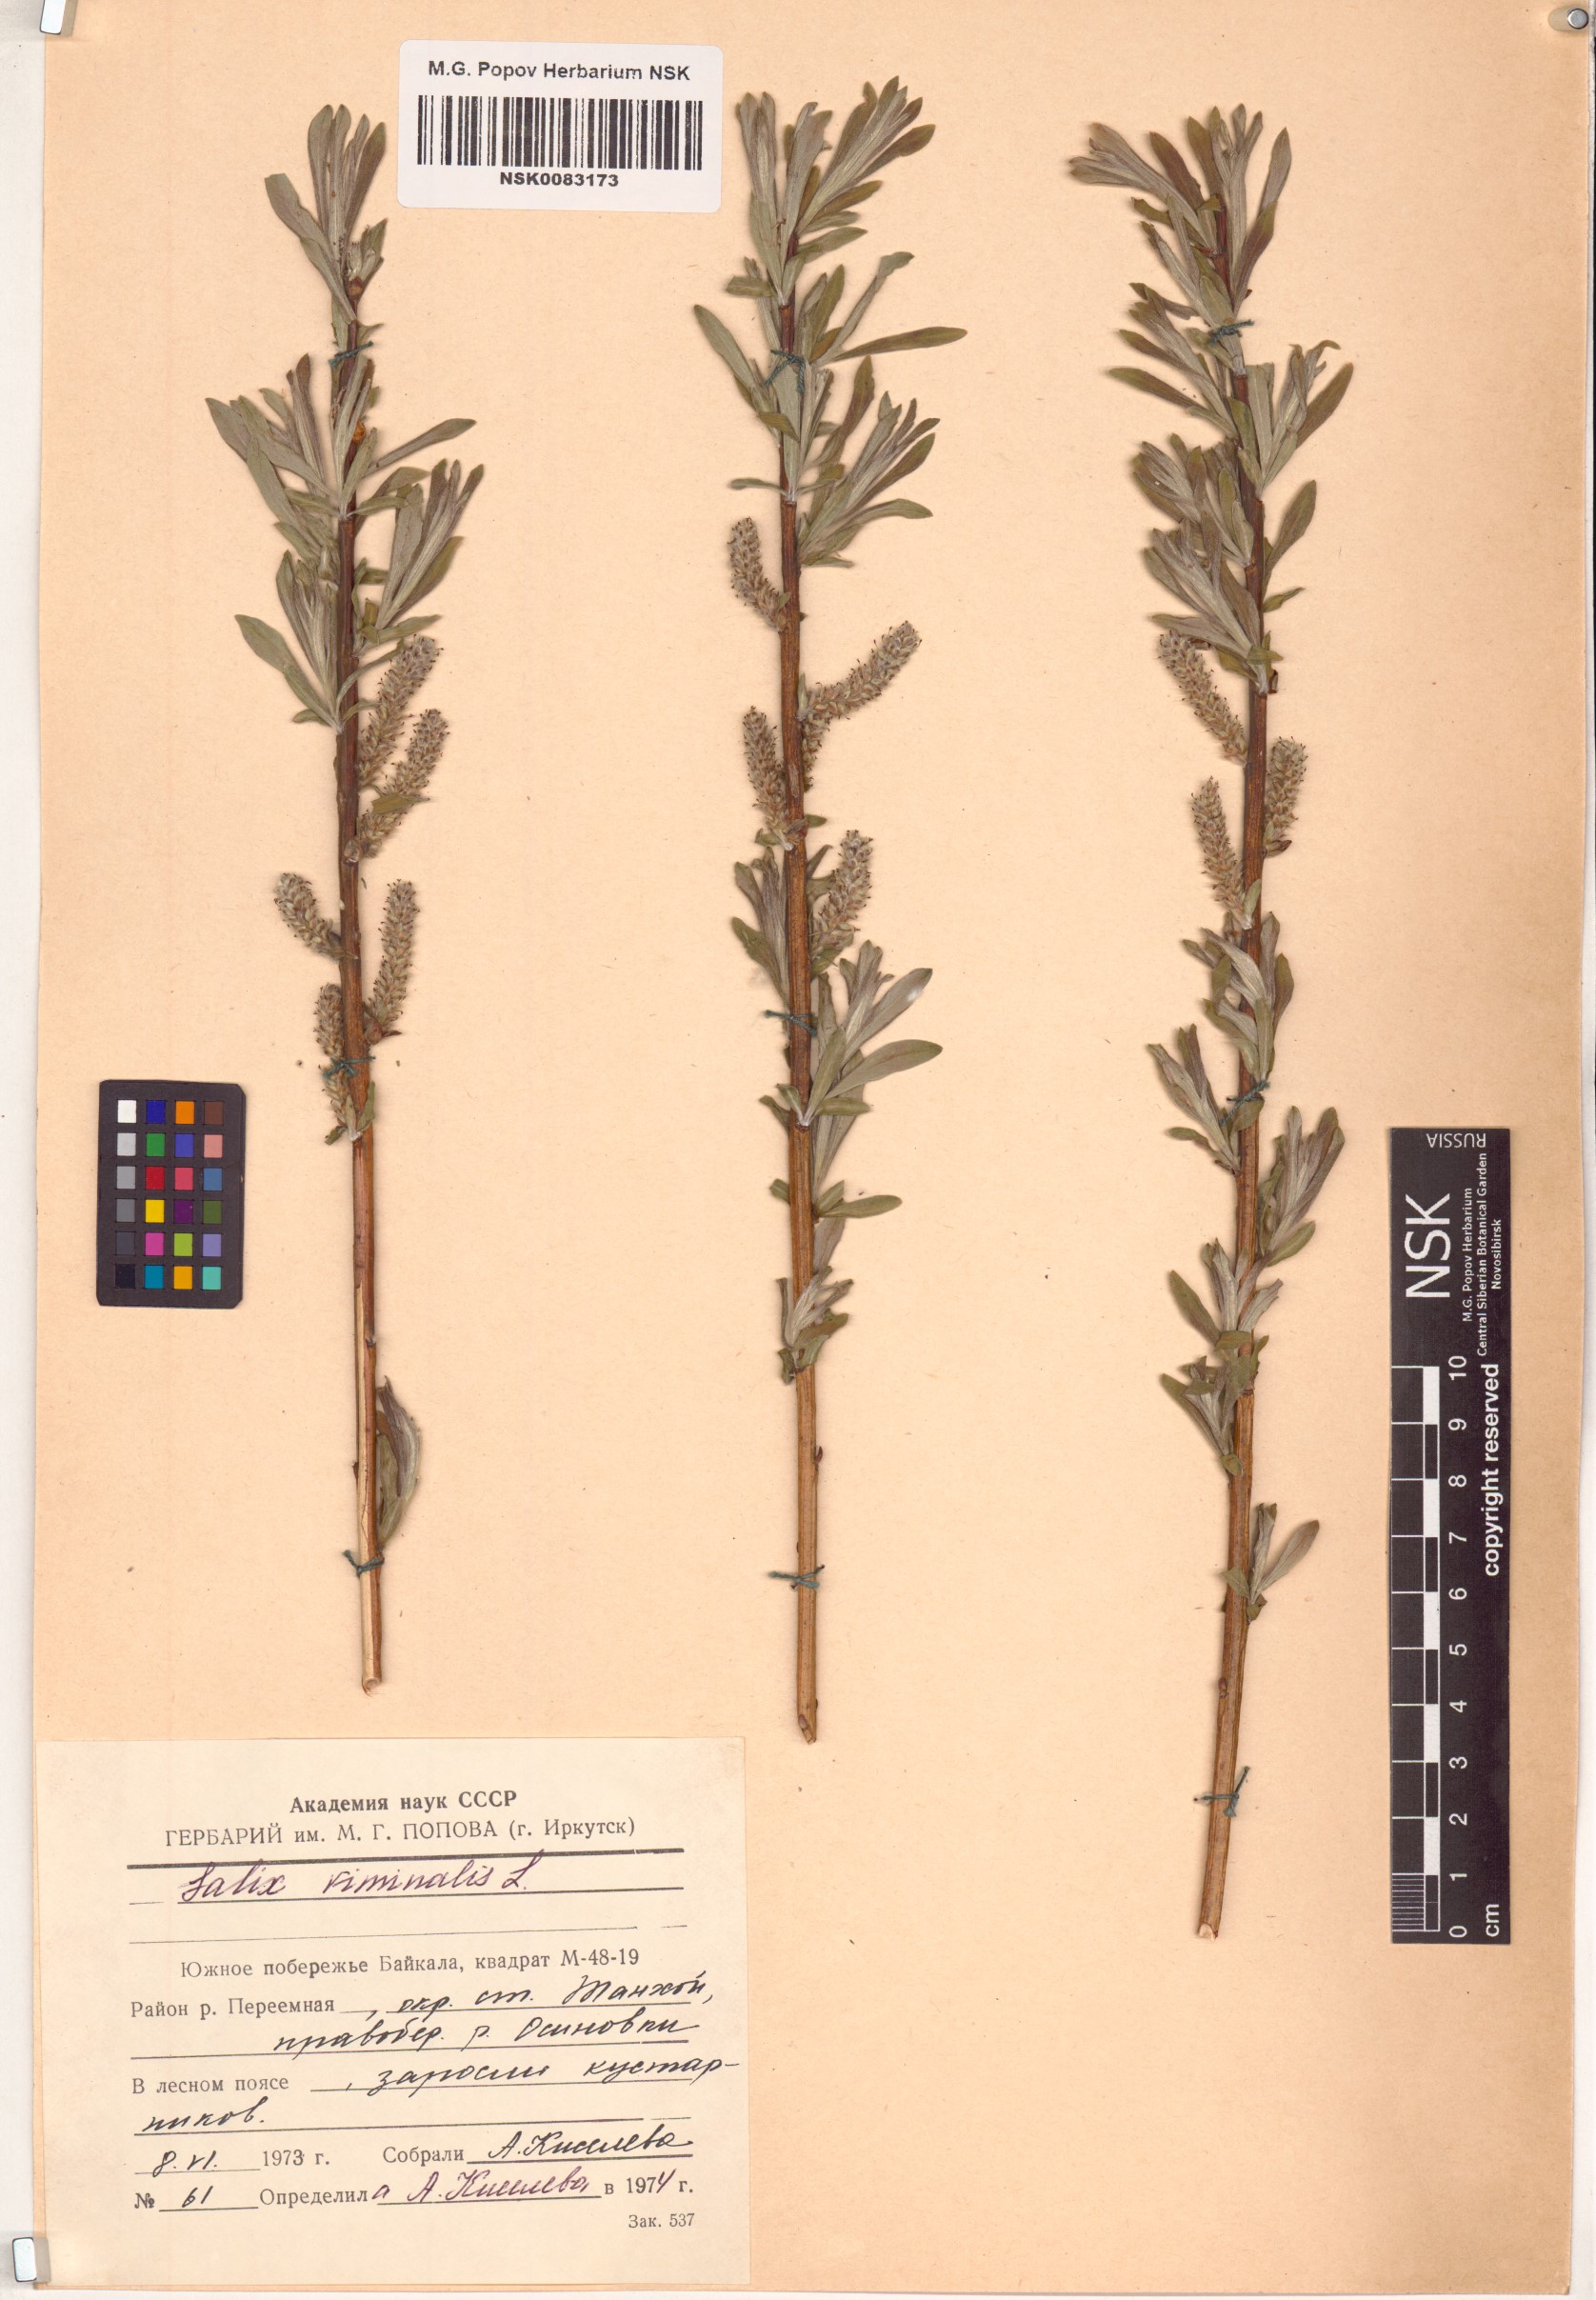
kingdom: Plantae
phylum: Tracheophyta
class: Magnoliopsida
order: Malpighiales
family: Salicaceae
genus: Salix
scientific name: Salix viminalis
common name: Osier
